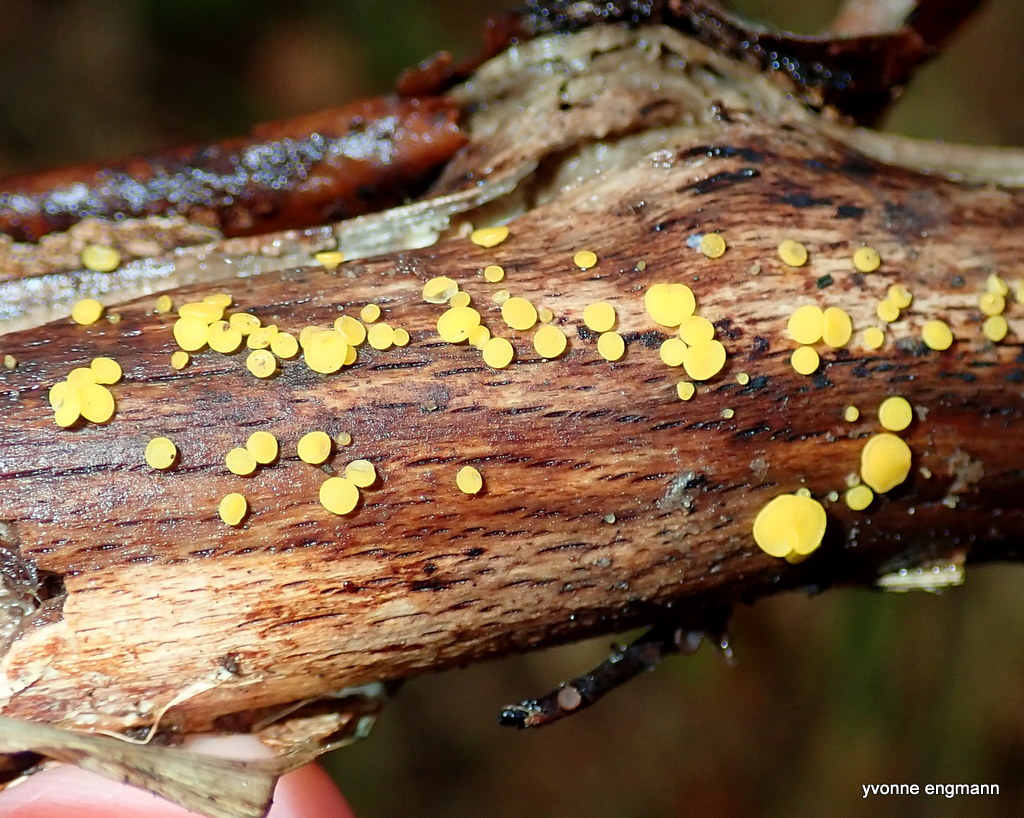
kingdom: Fungi
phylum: Ascomycota
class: Leotiomycetes
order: Helotiales
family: Pezizellaceae
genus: Calycina
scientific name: Calycina citrina
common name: almindelig gulskive
